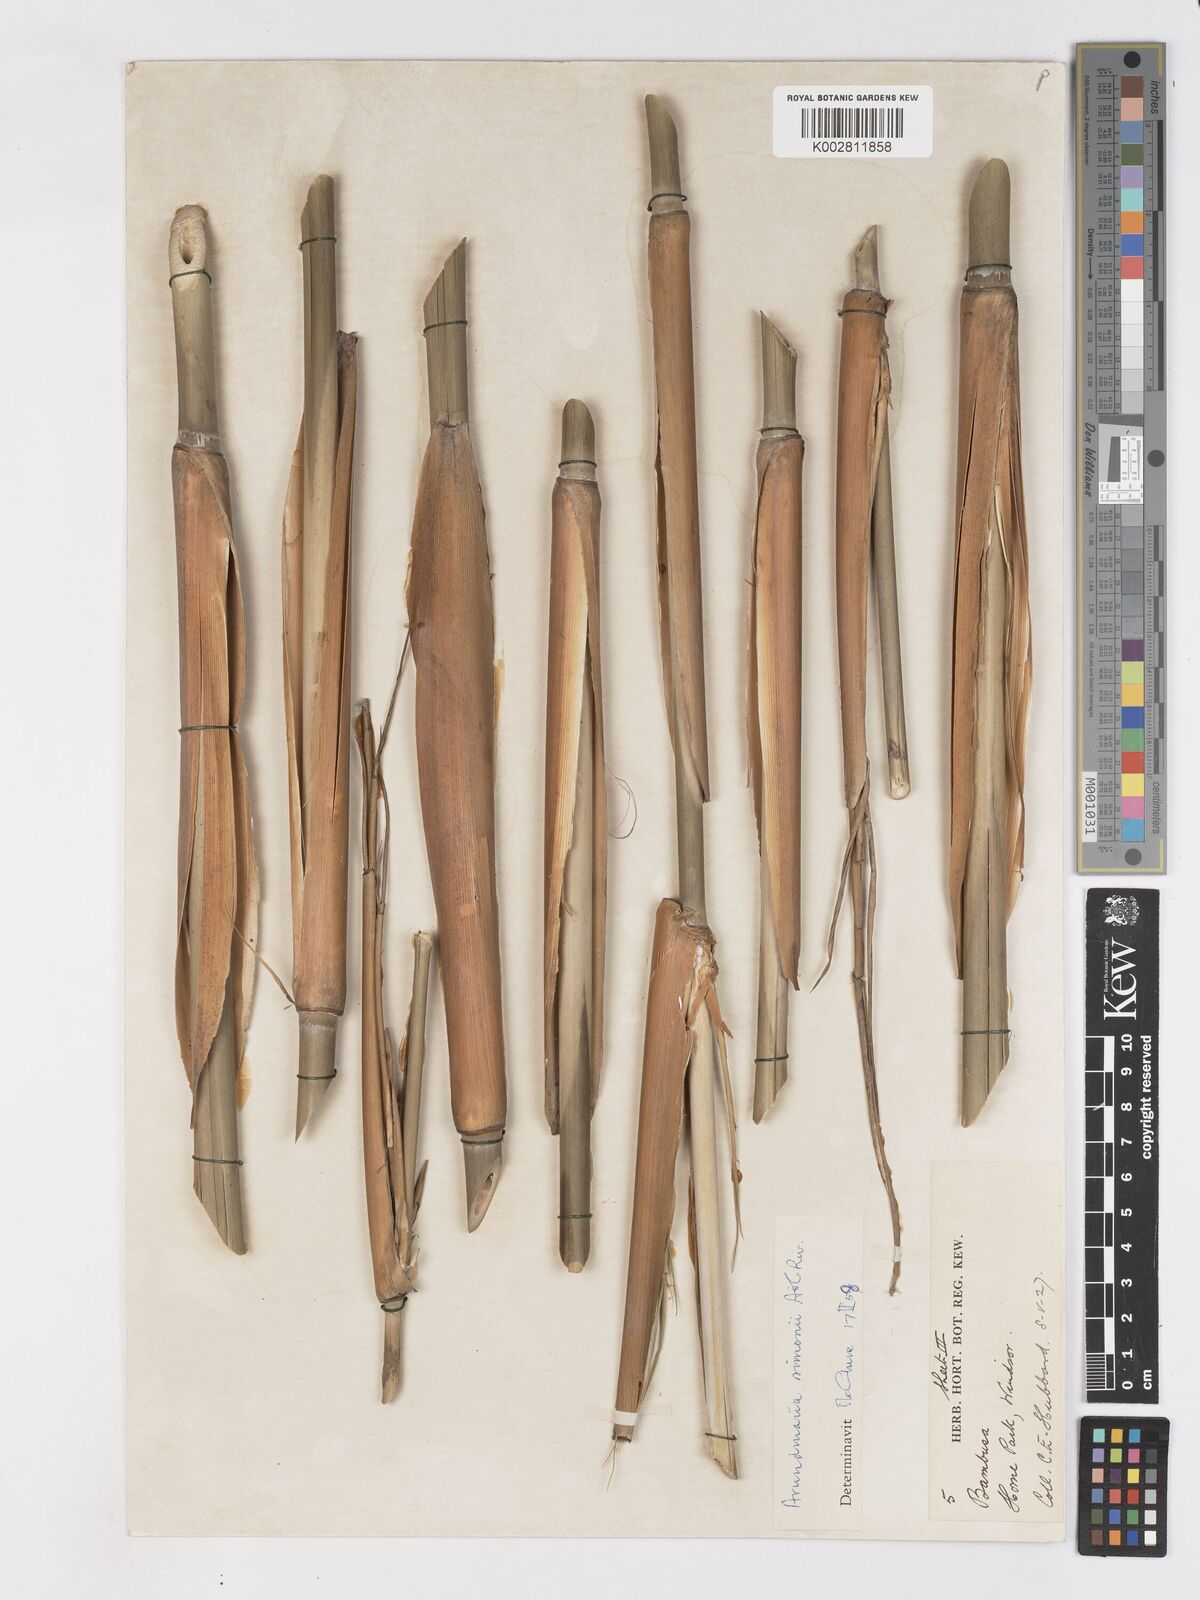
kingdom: Plantae
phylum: Tracheophyta
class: Liliopsida
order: Poales
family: Poaceae
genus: Pleioblastus
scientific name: Pleioblastus simonii
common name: Simon bamboo
